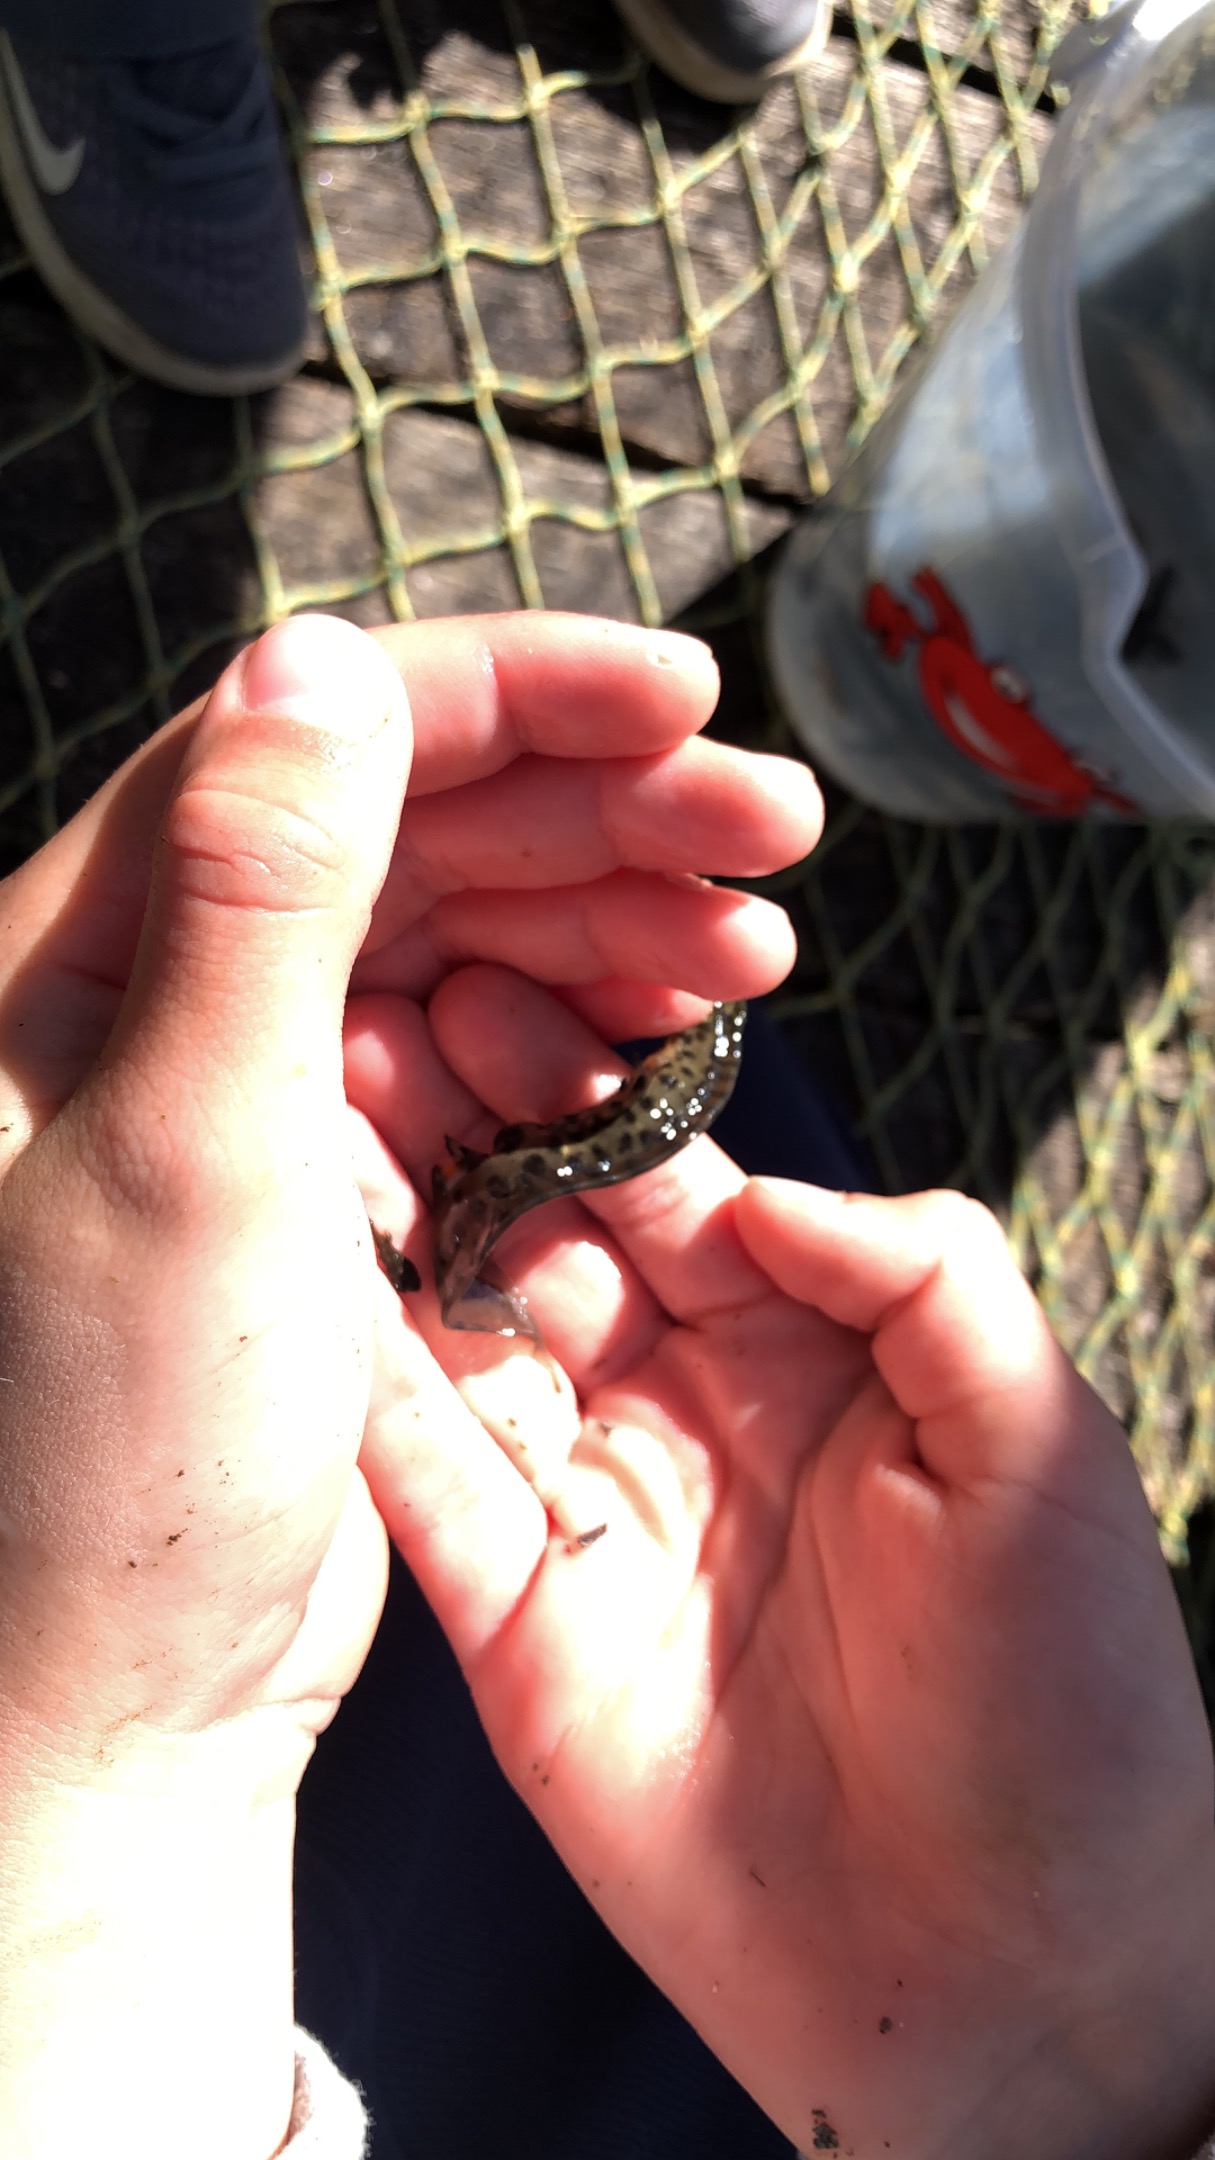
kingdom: Animalia
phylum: Chordata
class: Amphibia
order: Caudata
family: Salamandridae
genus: Lissotriton
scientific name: Lissotriton vulgaris
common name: Lille vandsalamander
